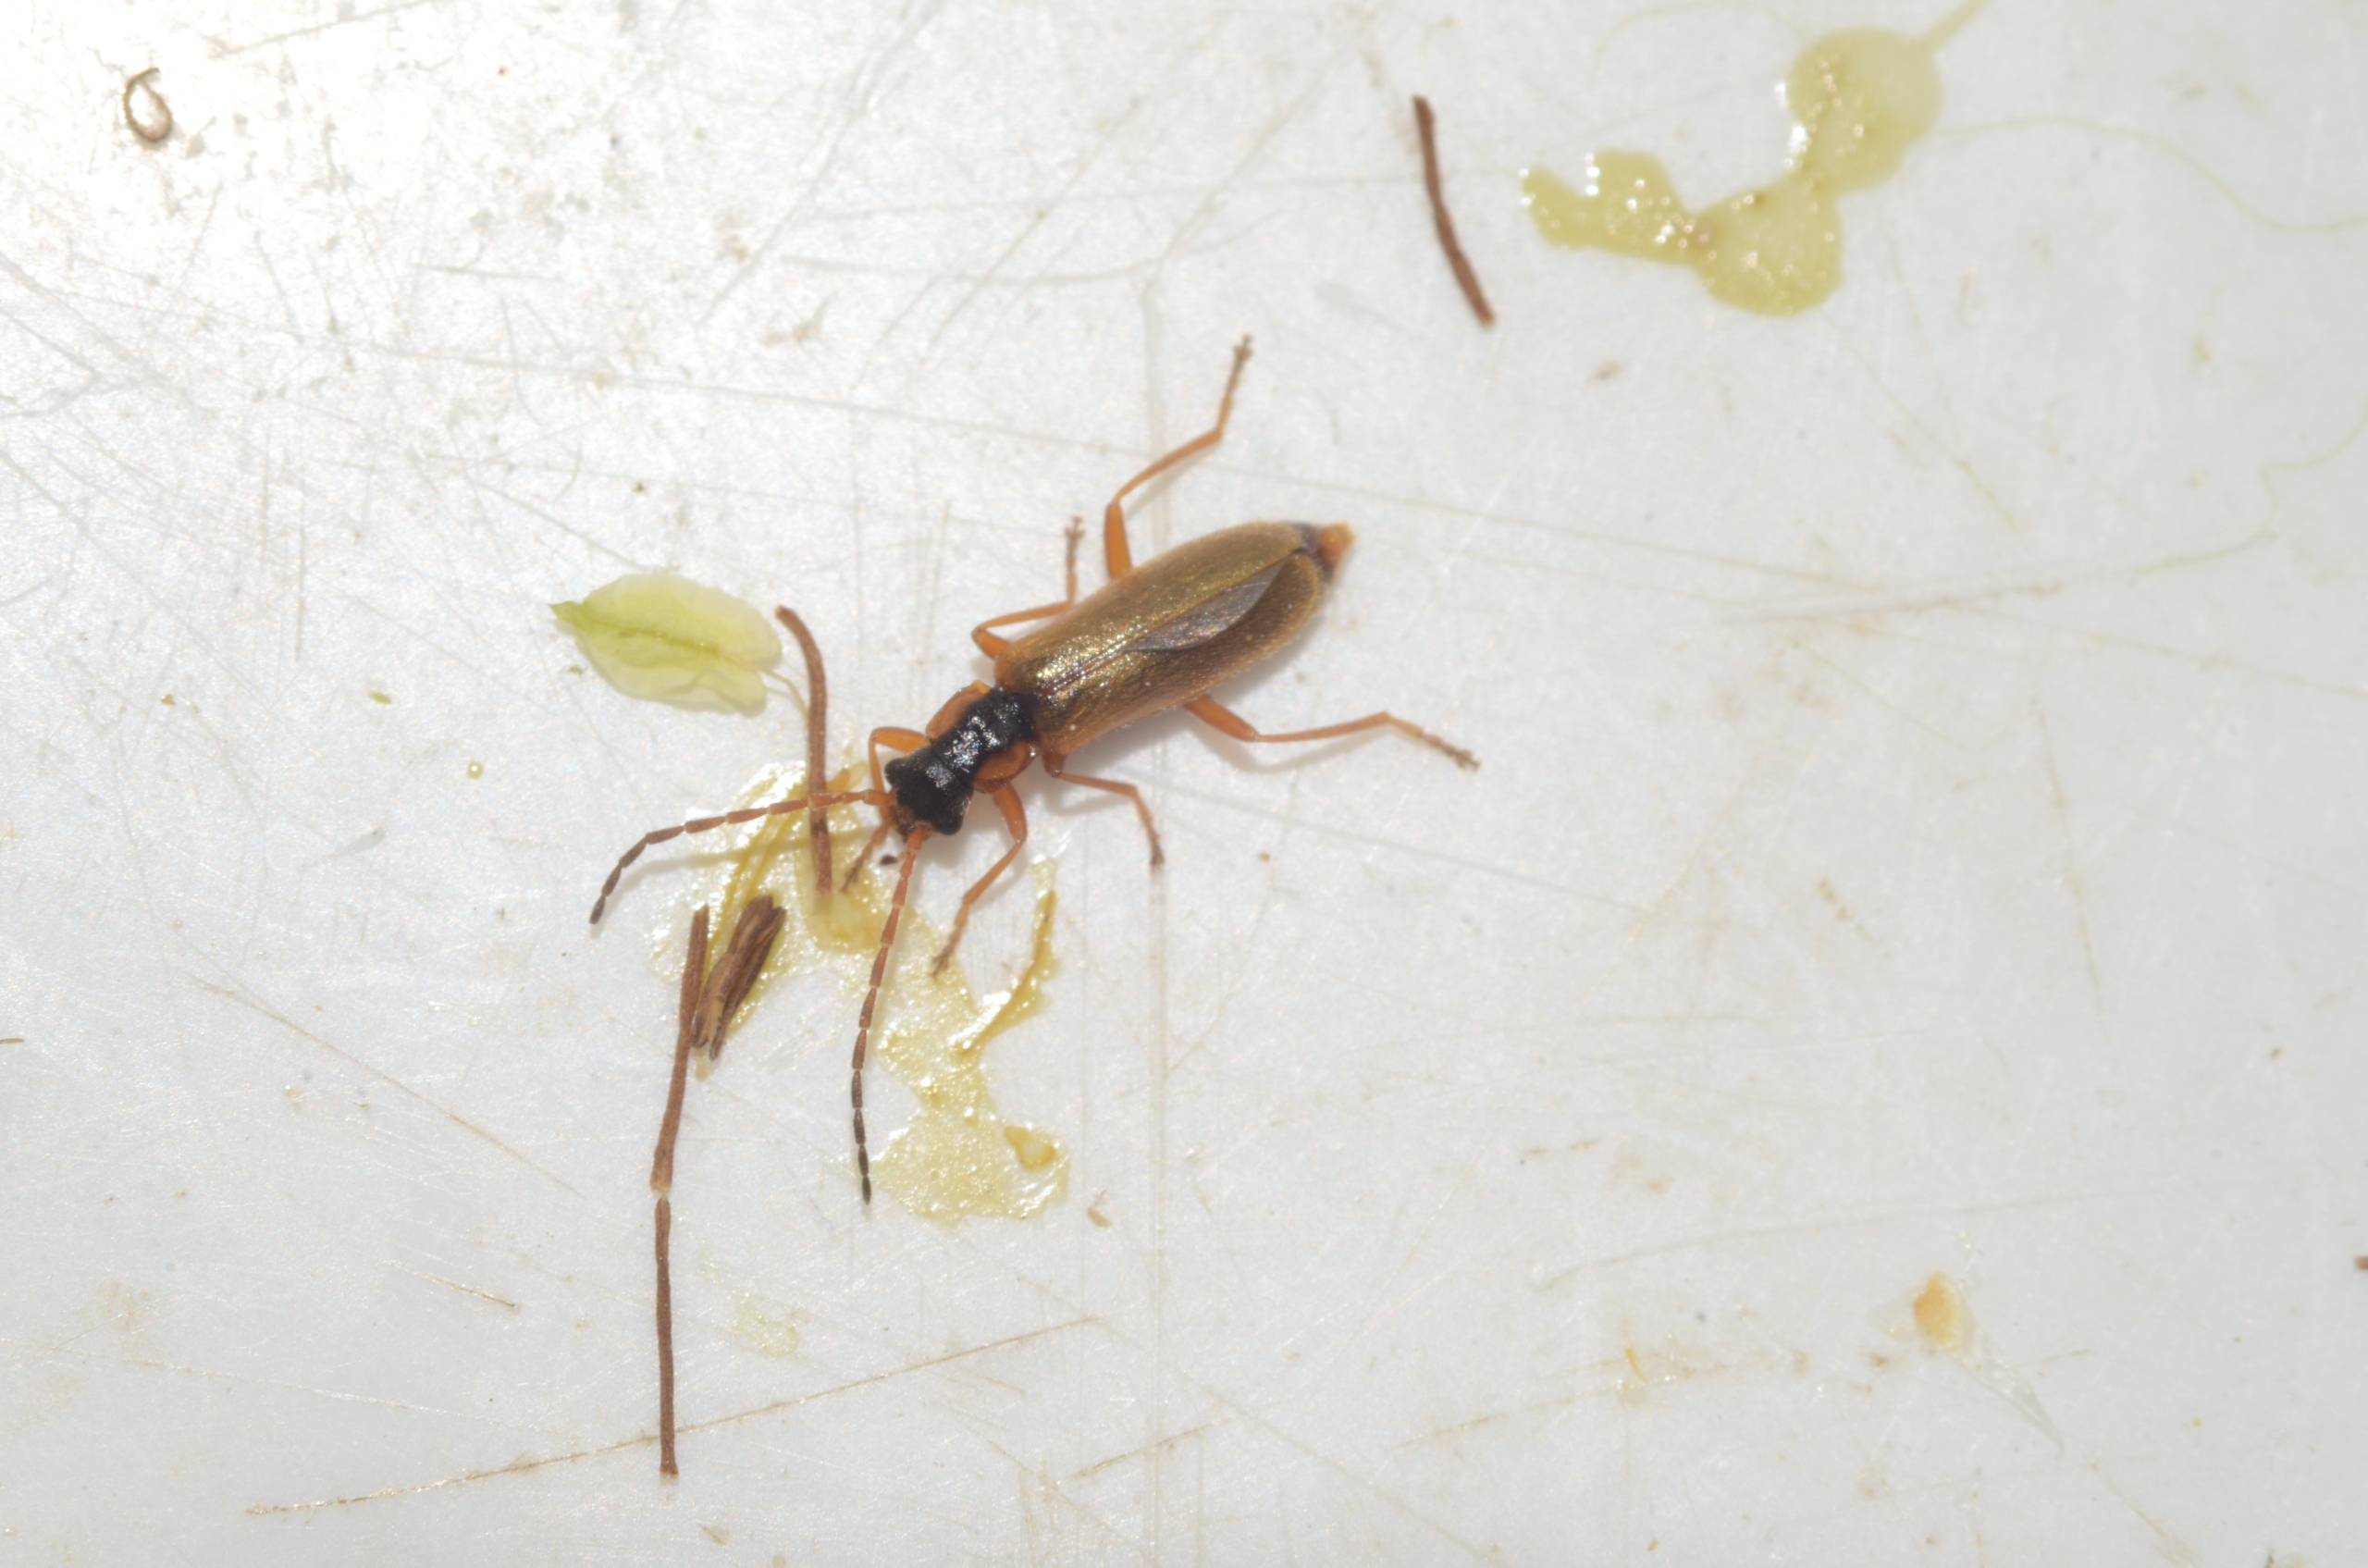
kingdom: Animalia
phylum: Arthropoda
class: Insecta
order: Coleoptera
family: Cantharidae
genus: Rhagonycha
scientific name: Rhagonycha testacea
